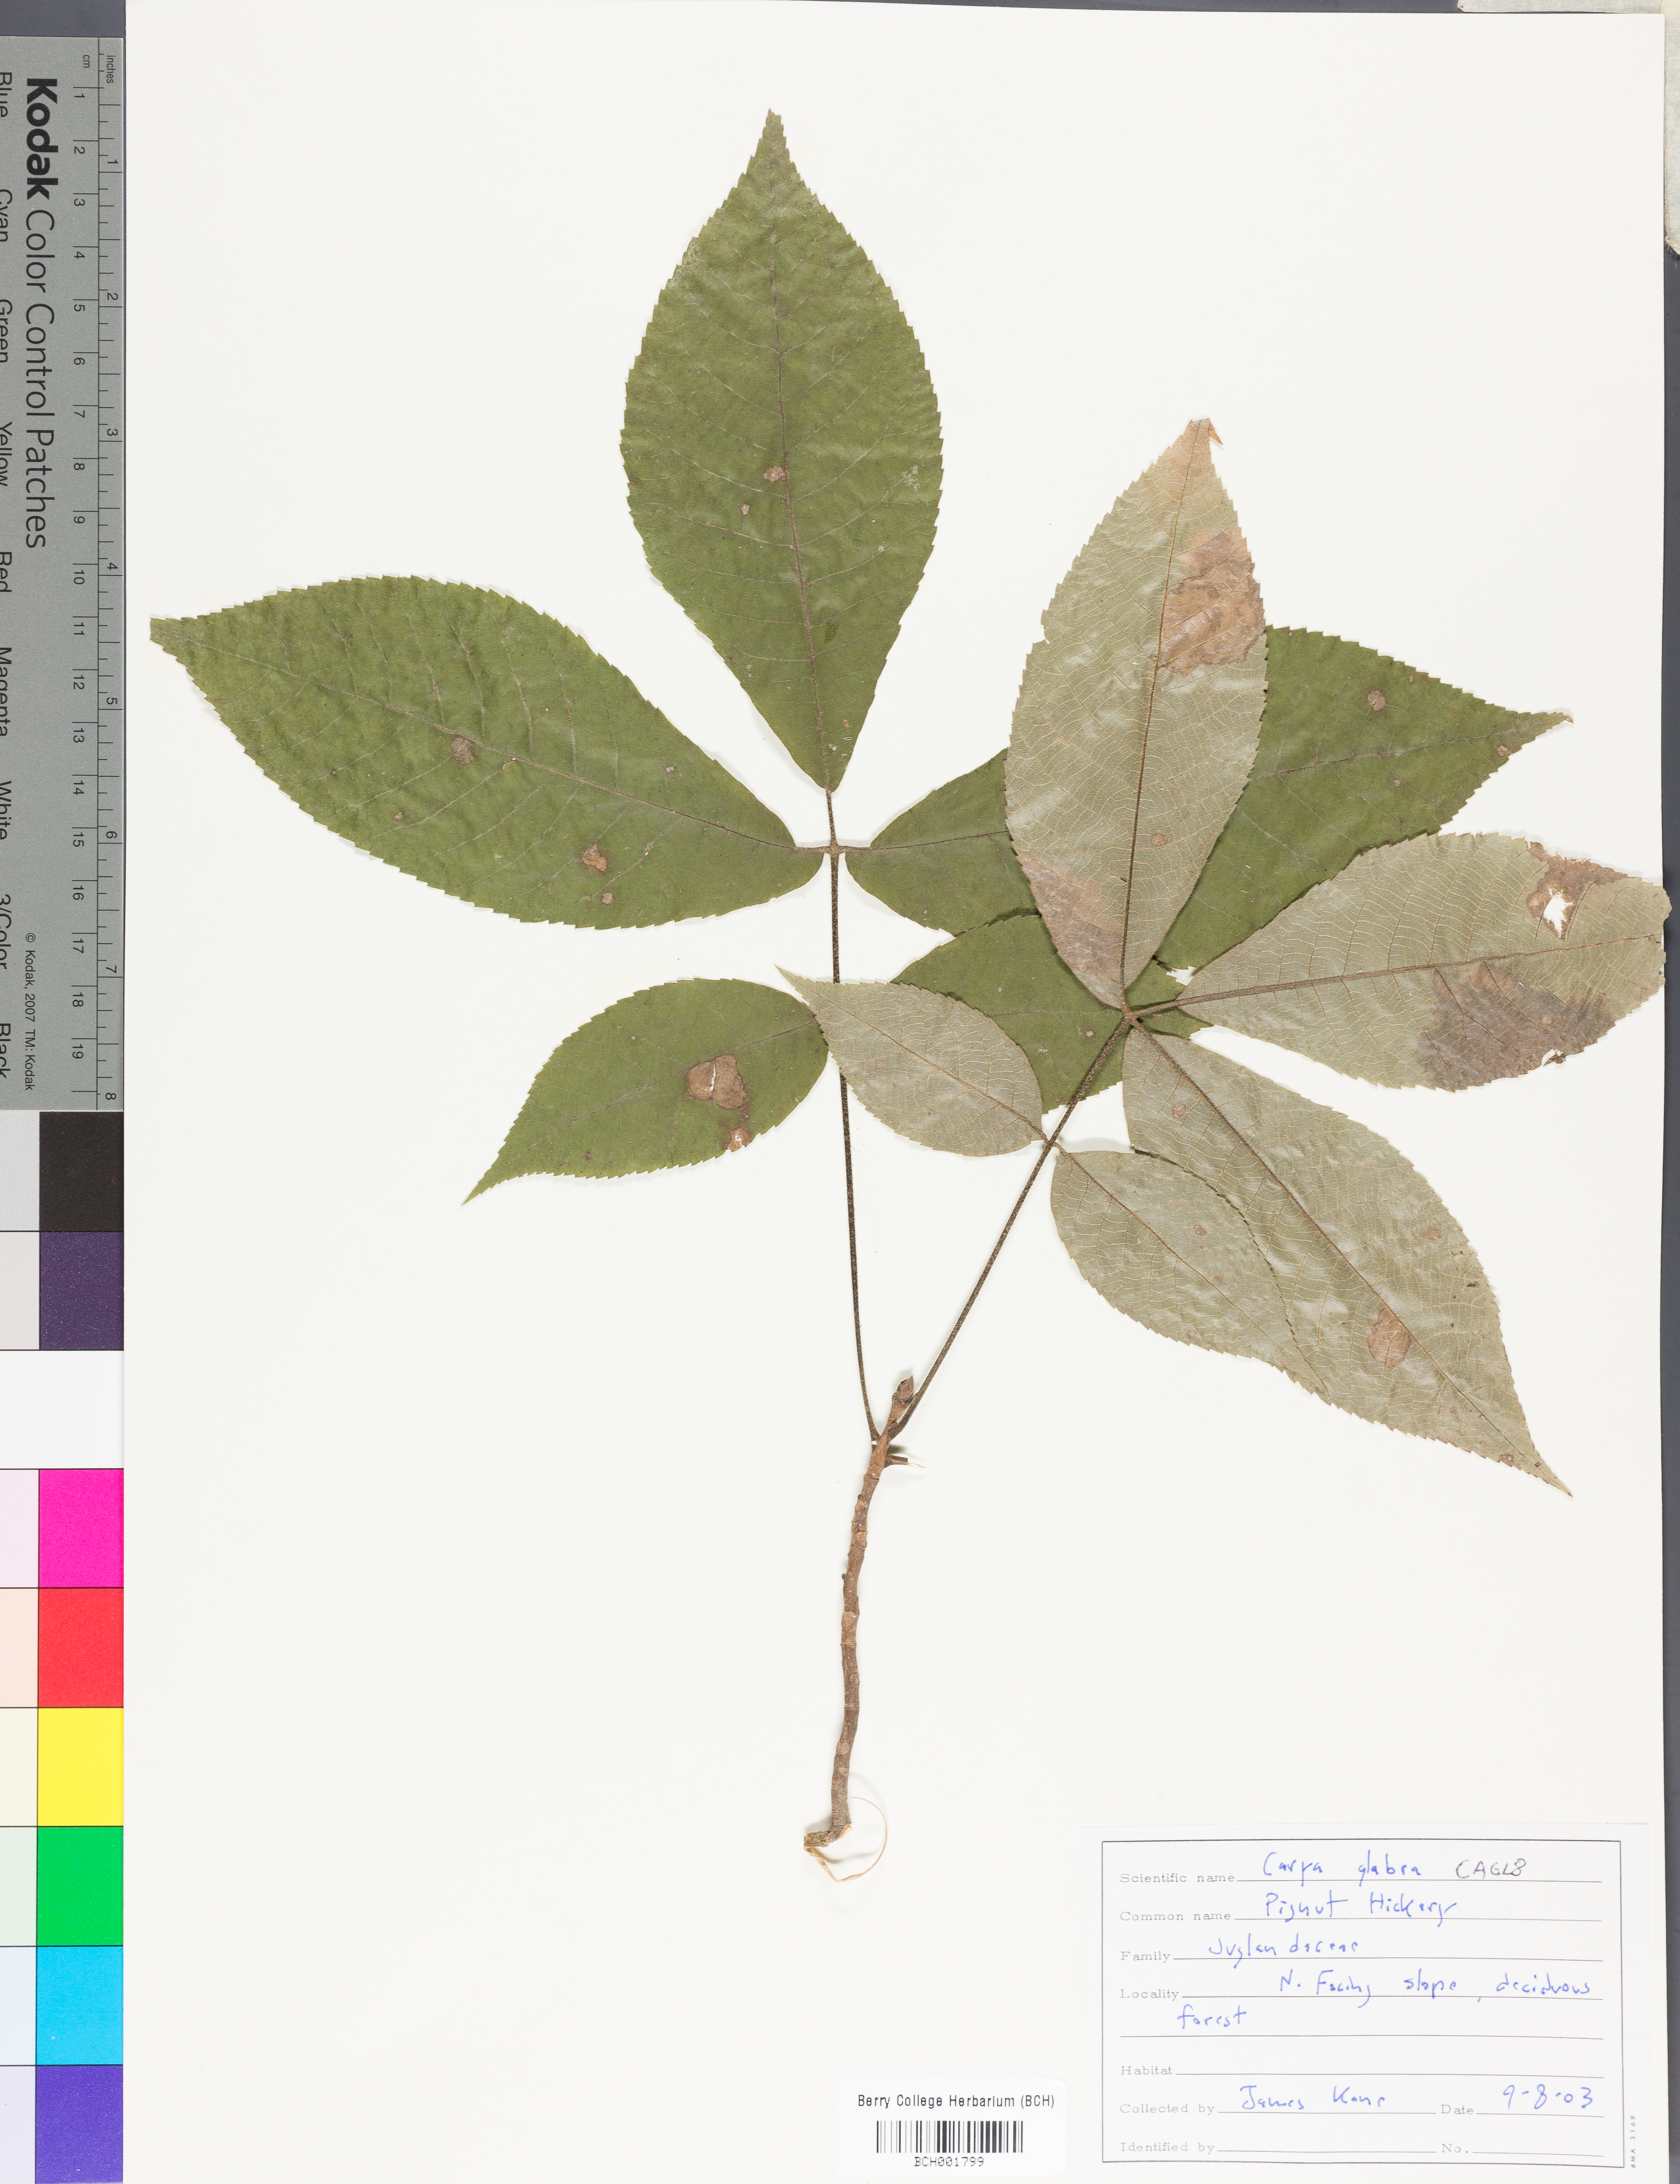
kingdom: Plantae
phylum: Tracheophyta
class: Magnoliopsida
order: Fagales
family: Juglandaceae
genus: Carya
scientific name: Carya glabra
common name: Pignut hickory
